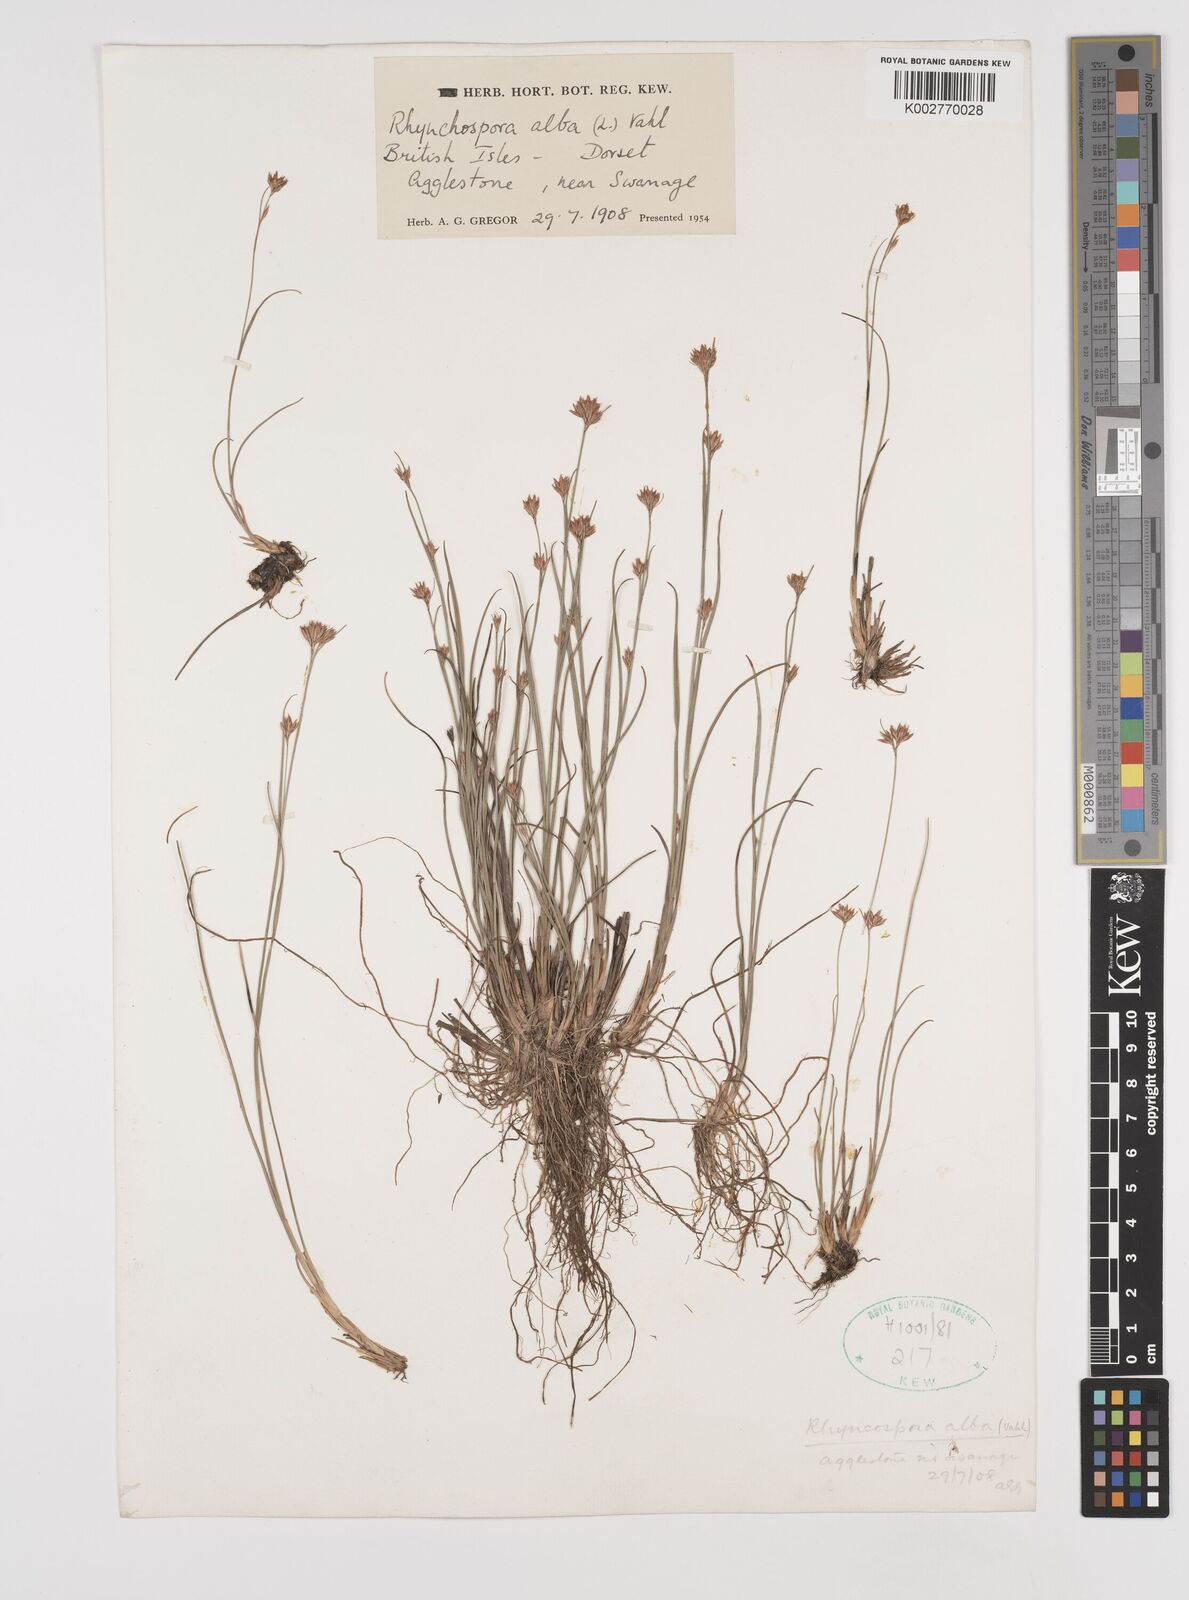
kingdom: Plantae
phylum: Tracheophyta
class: Liliopsida
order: Poales
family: Cyperaceae
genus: Rhynchospora
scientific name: Rhynchospora alba
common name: White beak-sedge
